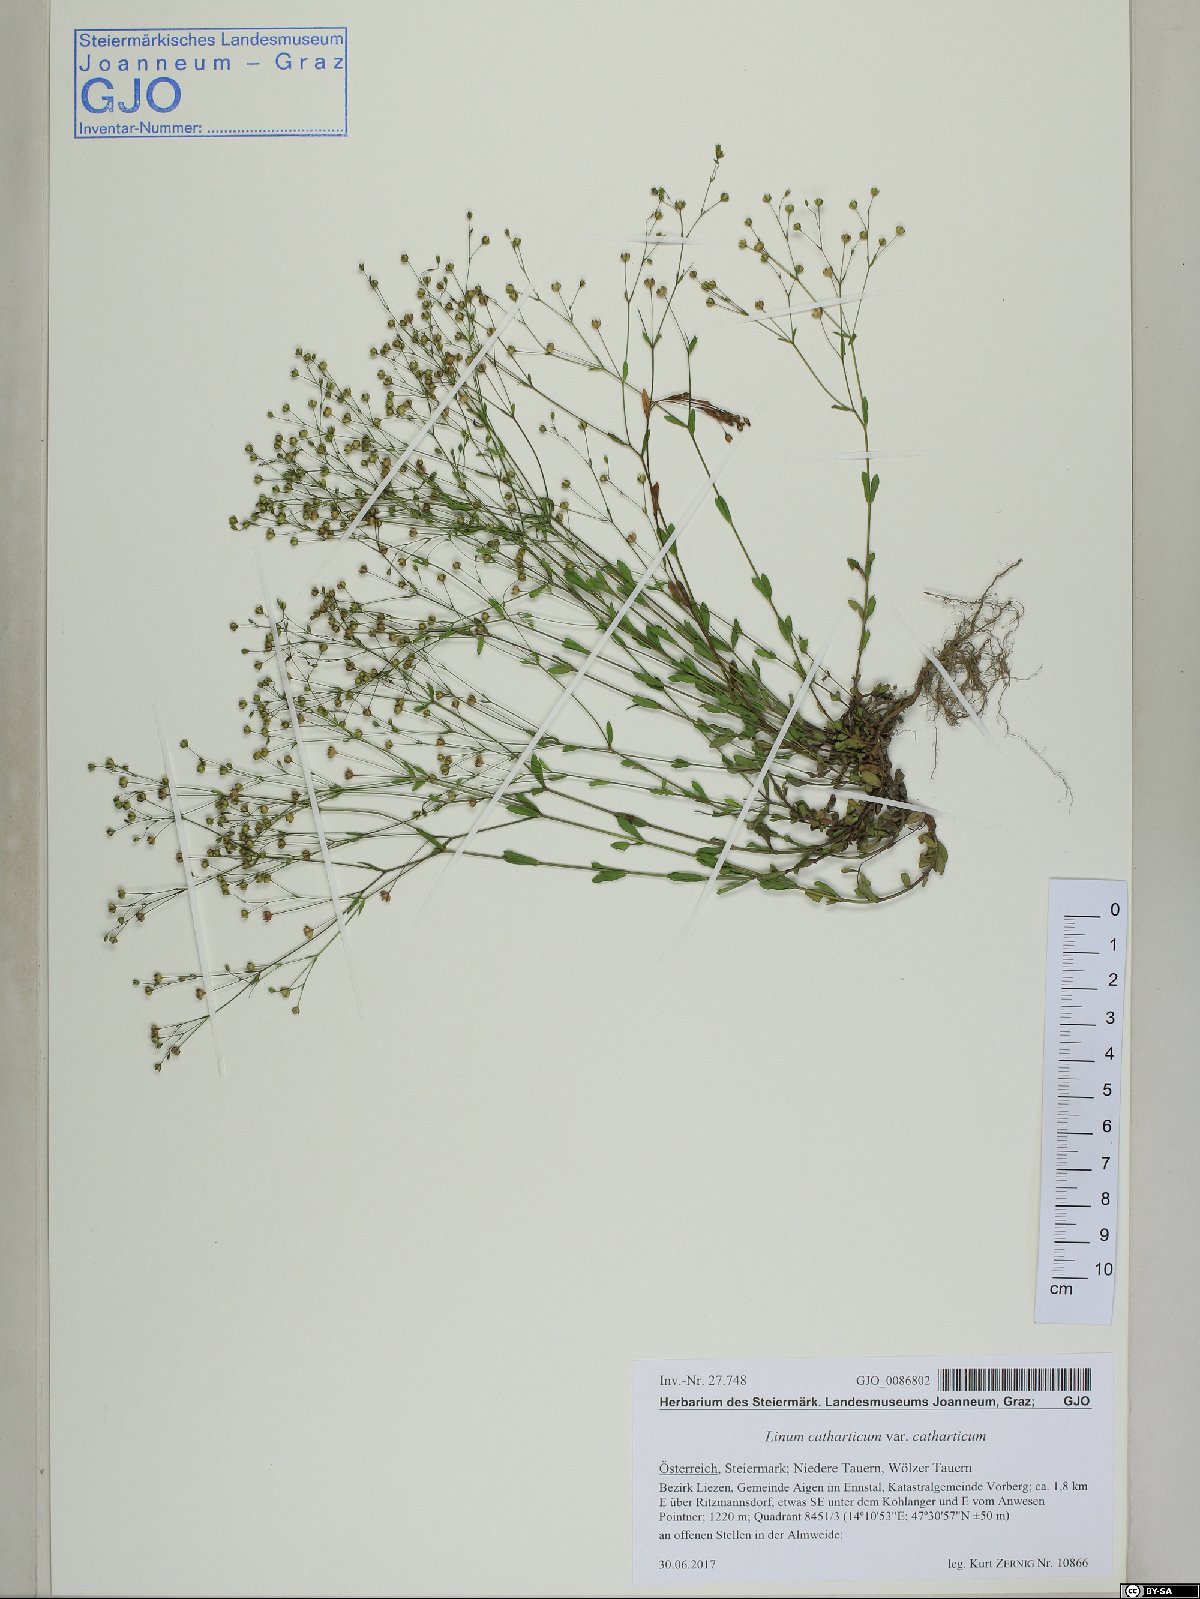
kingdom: Plantae
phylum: Tracheophyta
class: Magnoliopsida
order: Malpighiales
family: Linaceae
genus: Linum
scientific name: Linum catharticum
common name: Fairy flax
